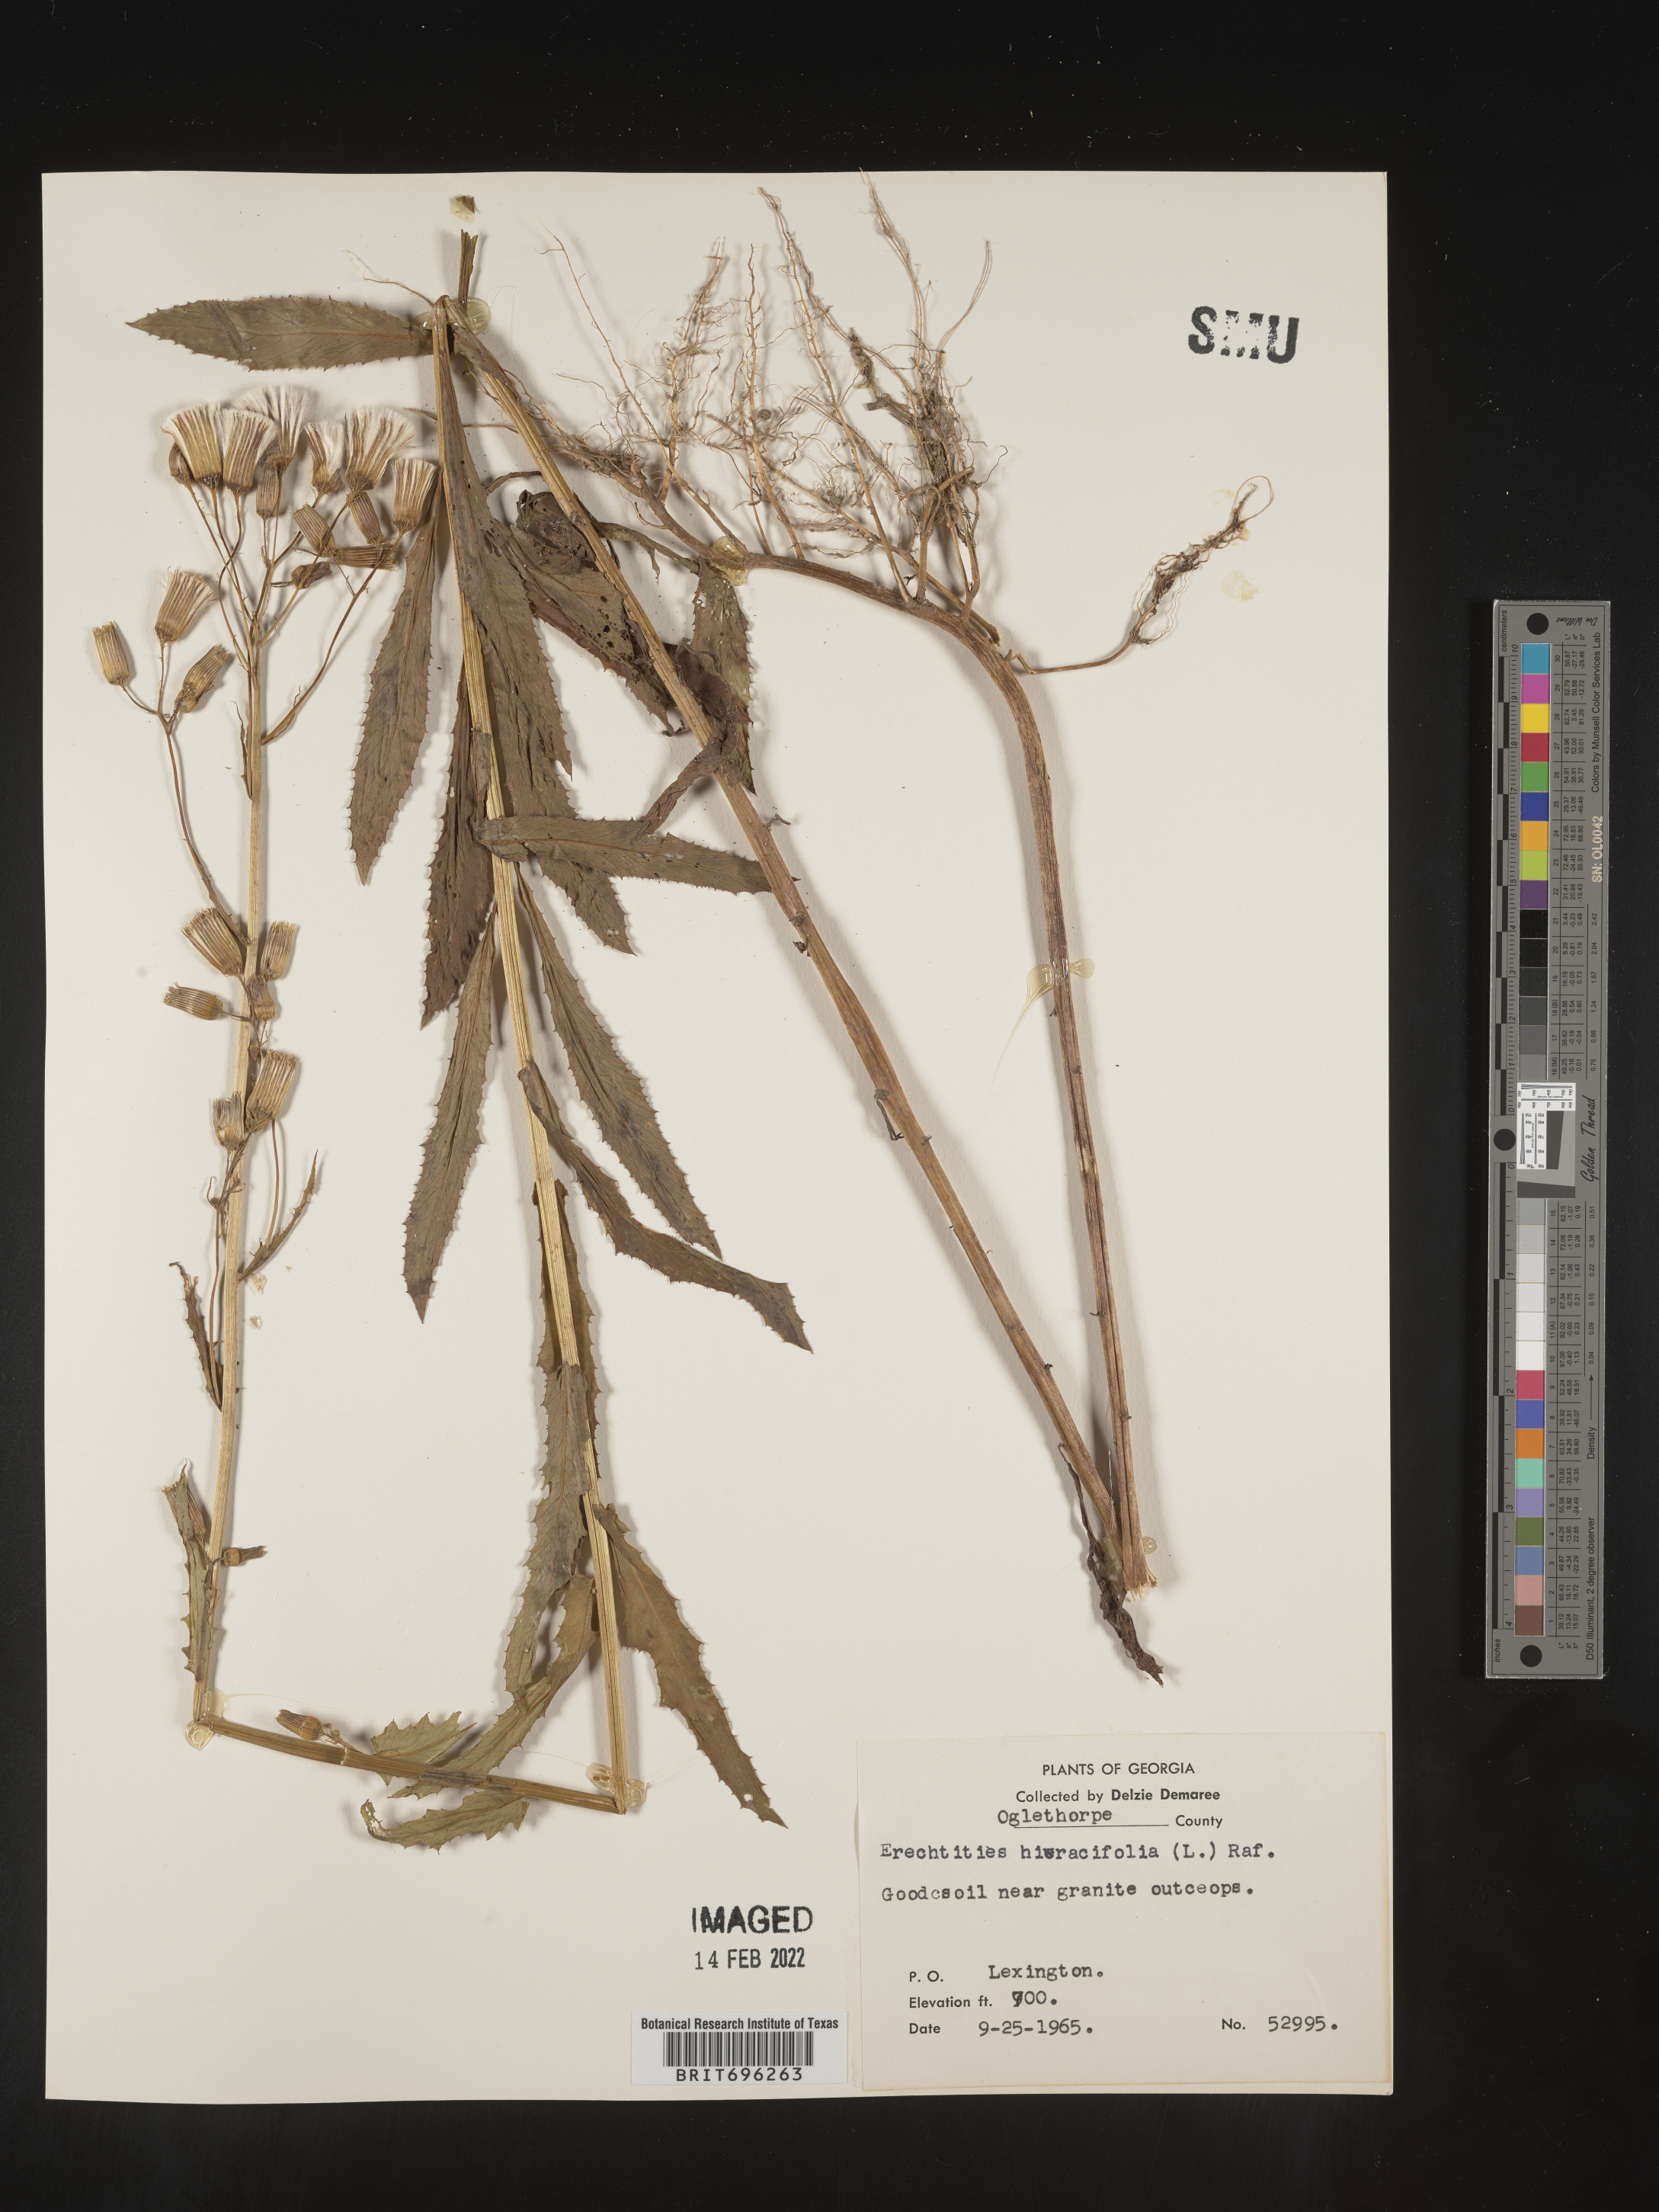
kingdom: Plantae
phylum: Tracheophyta
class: Magnoliopsida
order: Asterales
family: Asteraceae
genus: Erechtites
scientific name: Erechtites hieraciifolius
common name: American burnweed
